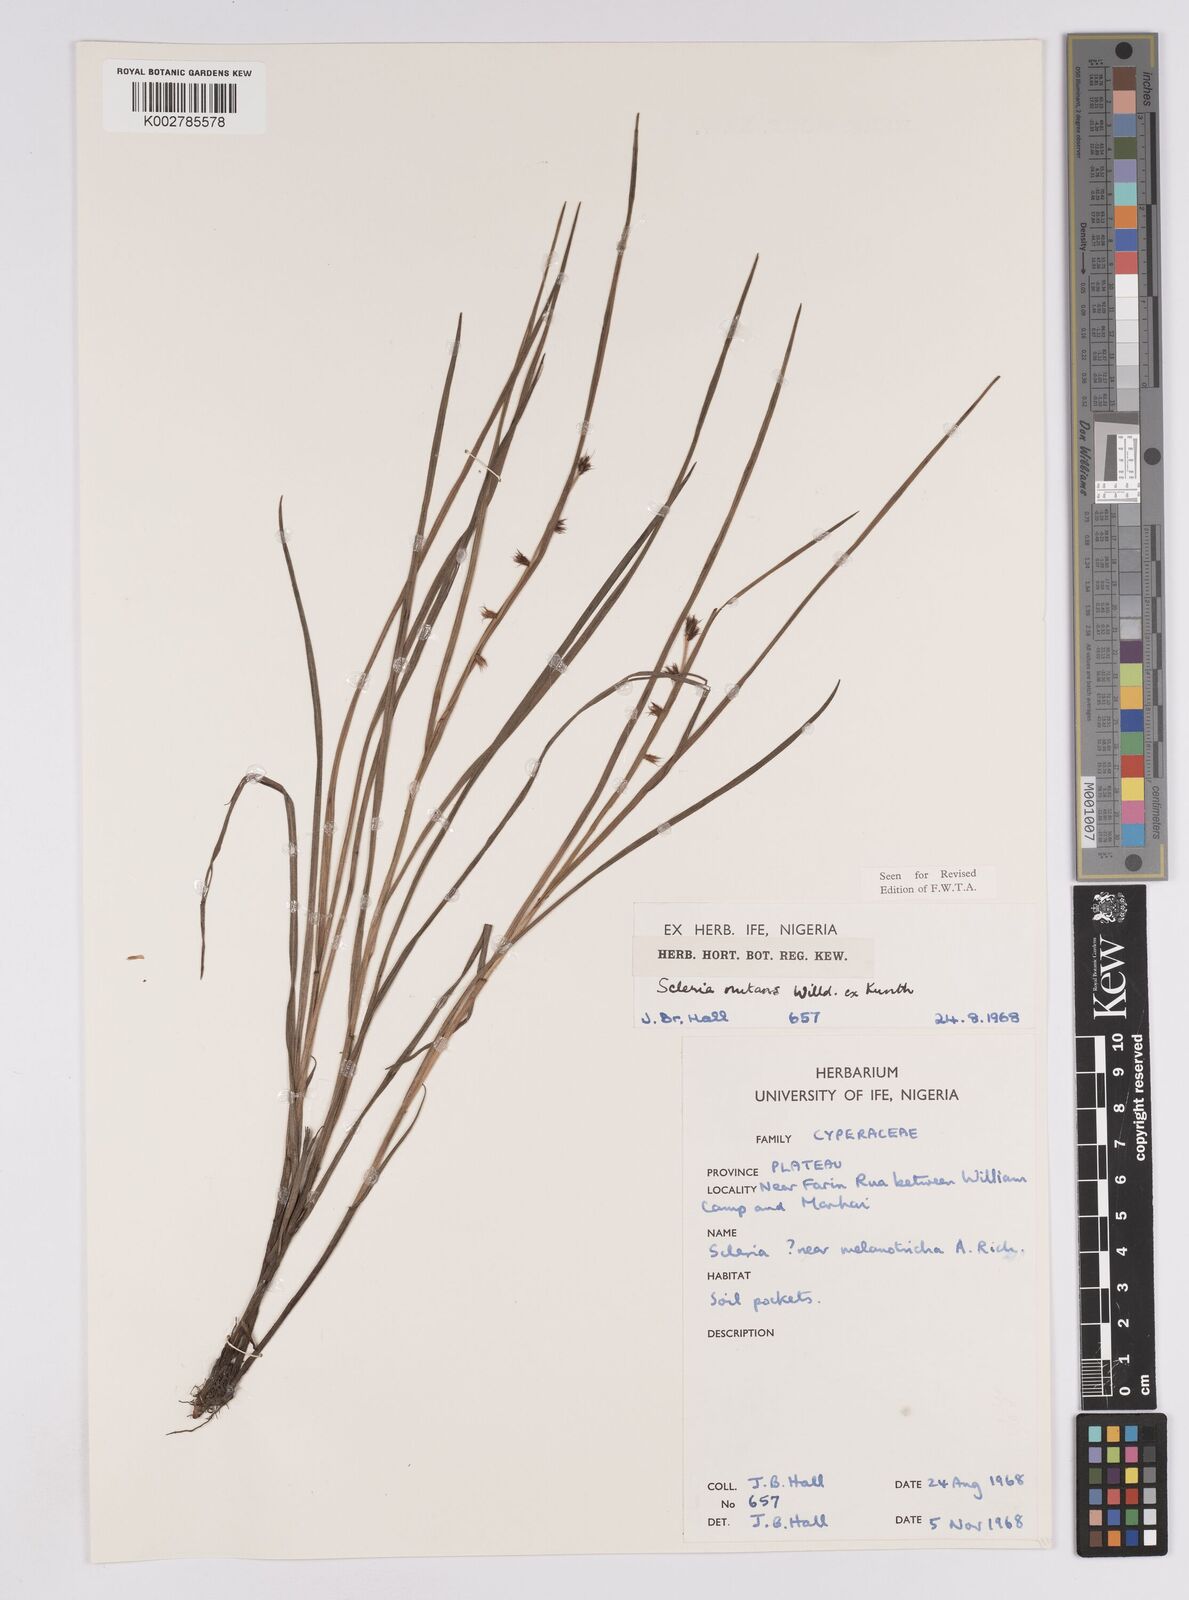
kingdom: Plantae
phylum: Tracheophyta
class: Liliopsida
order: Poales
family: Cyperaceae
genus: Scleria
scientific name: Scleria distans
